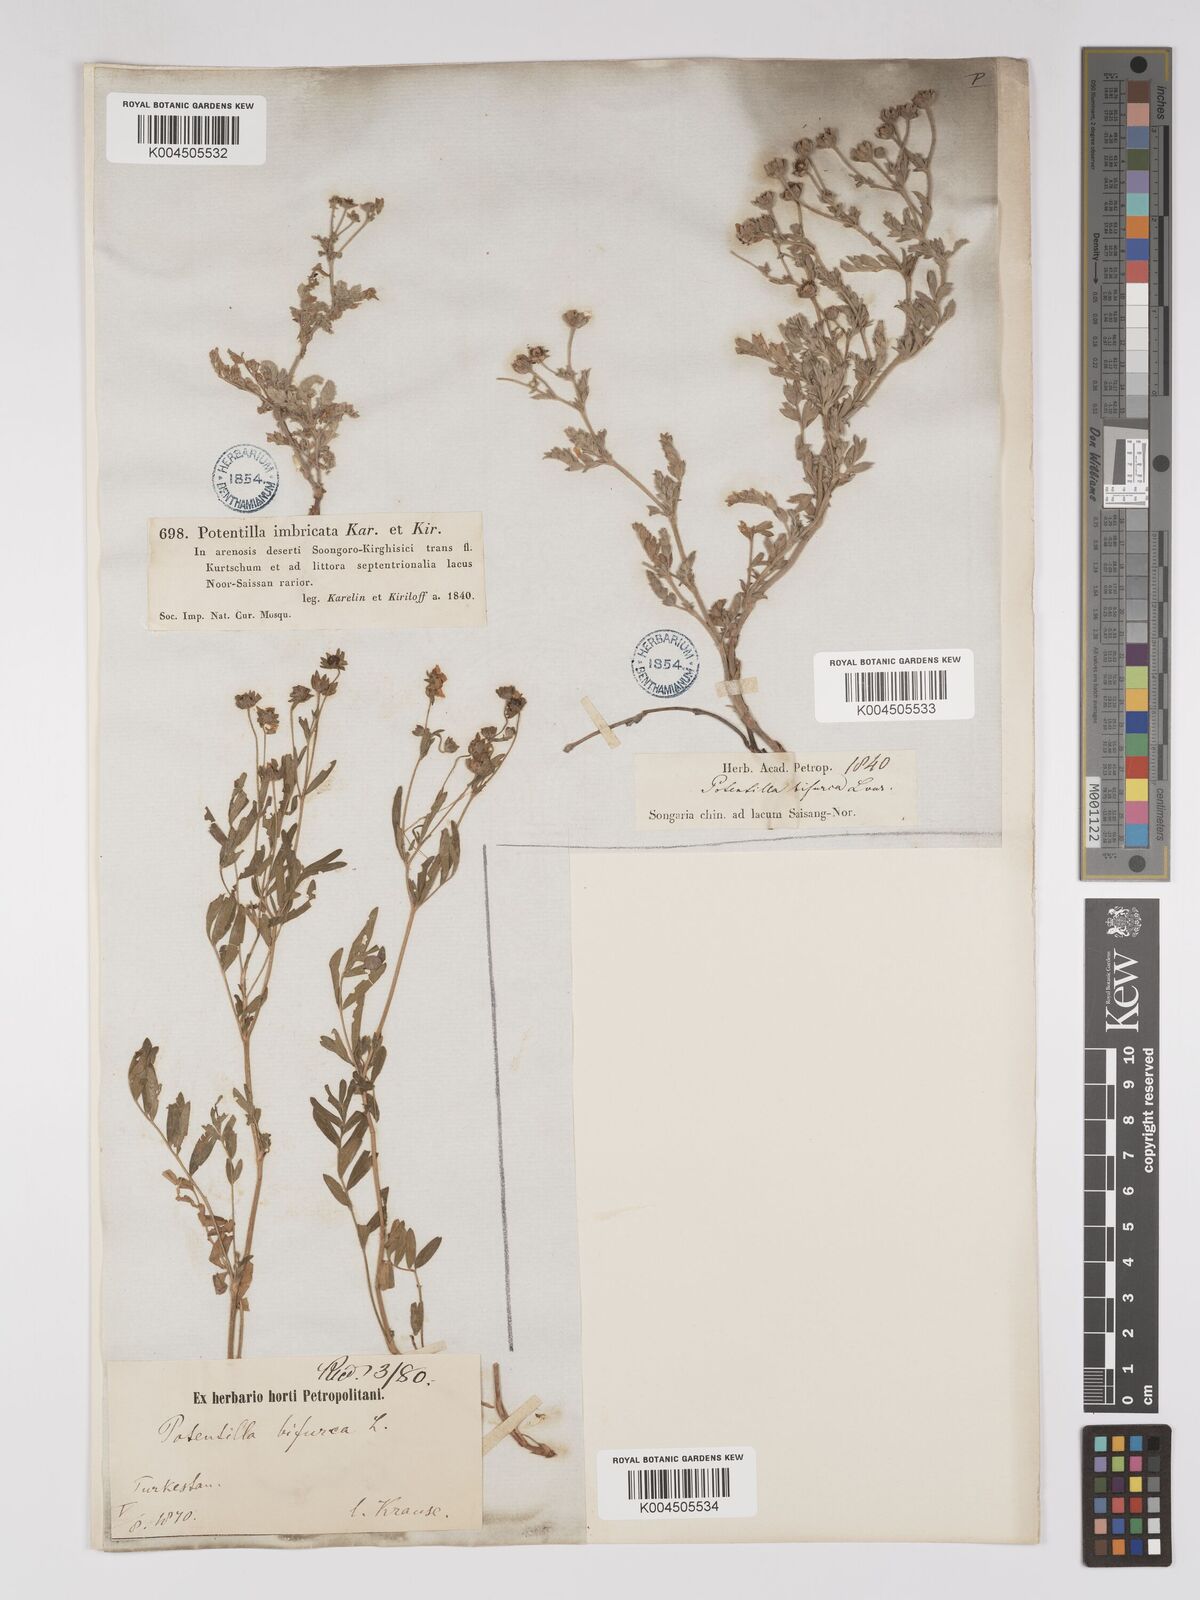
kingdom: Plantae
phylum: Tracheophyta
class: Magnoliopsida
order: Rosales
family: Rosaceae
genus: Sibbaldianthe
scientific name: Sibbaldianthe bifurca
